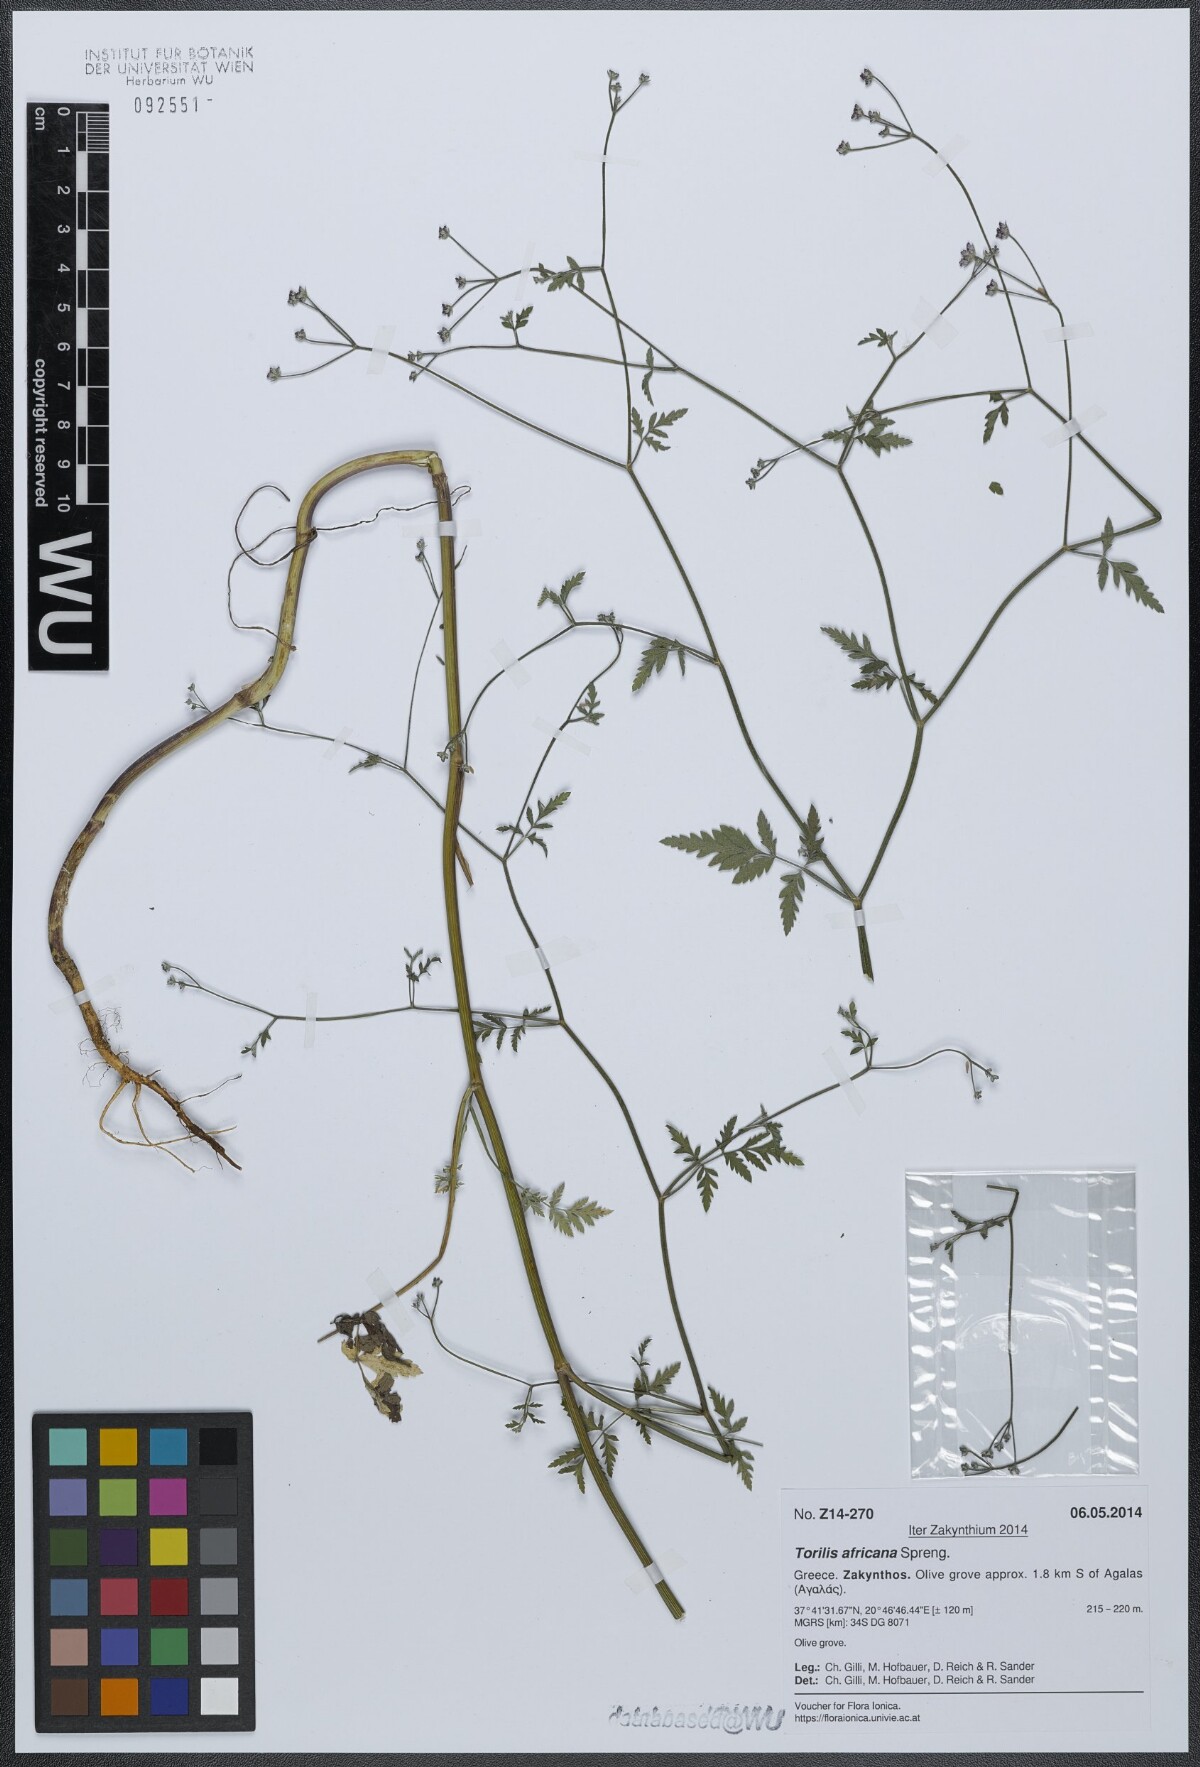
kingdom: Plantae
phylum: Tracheophyta
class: Magnoliopsida
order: Apiales
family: Apiaceae
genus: Torilis
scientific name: Torilis africana
